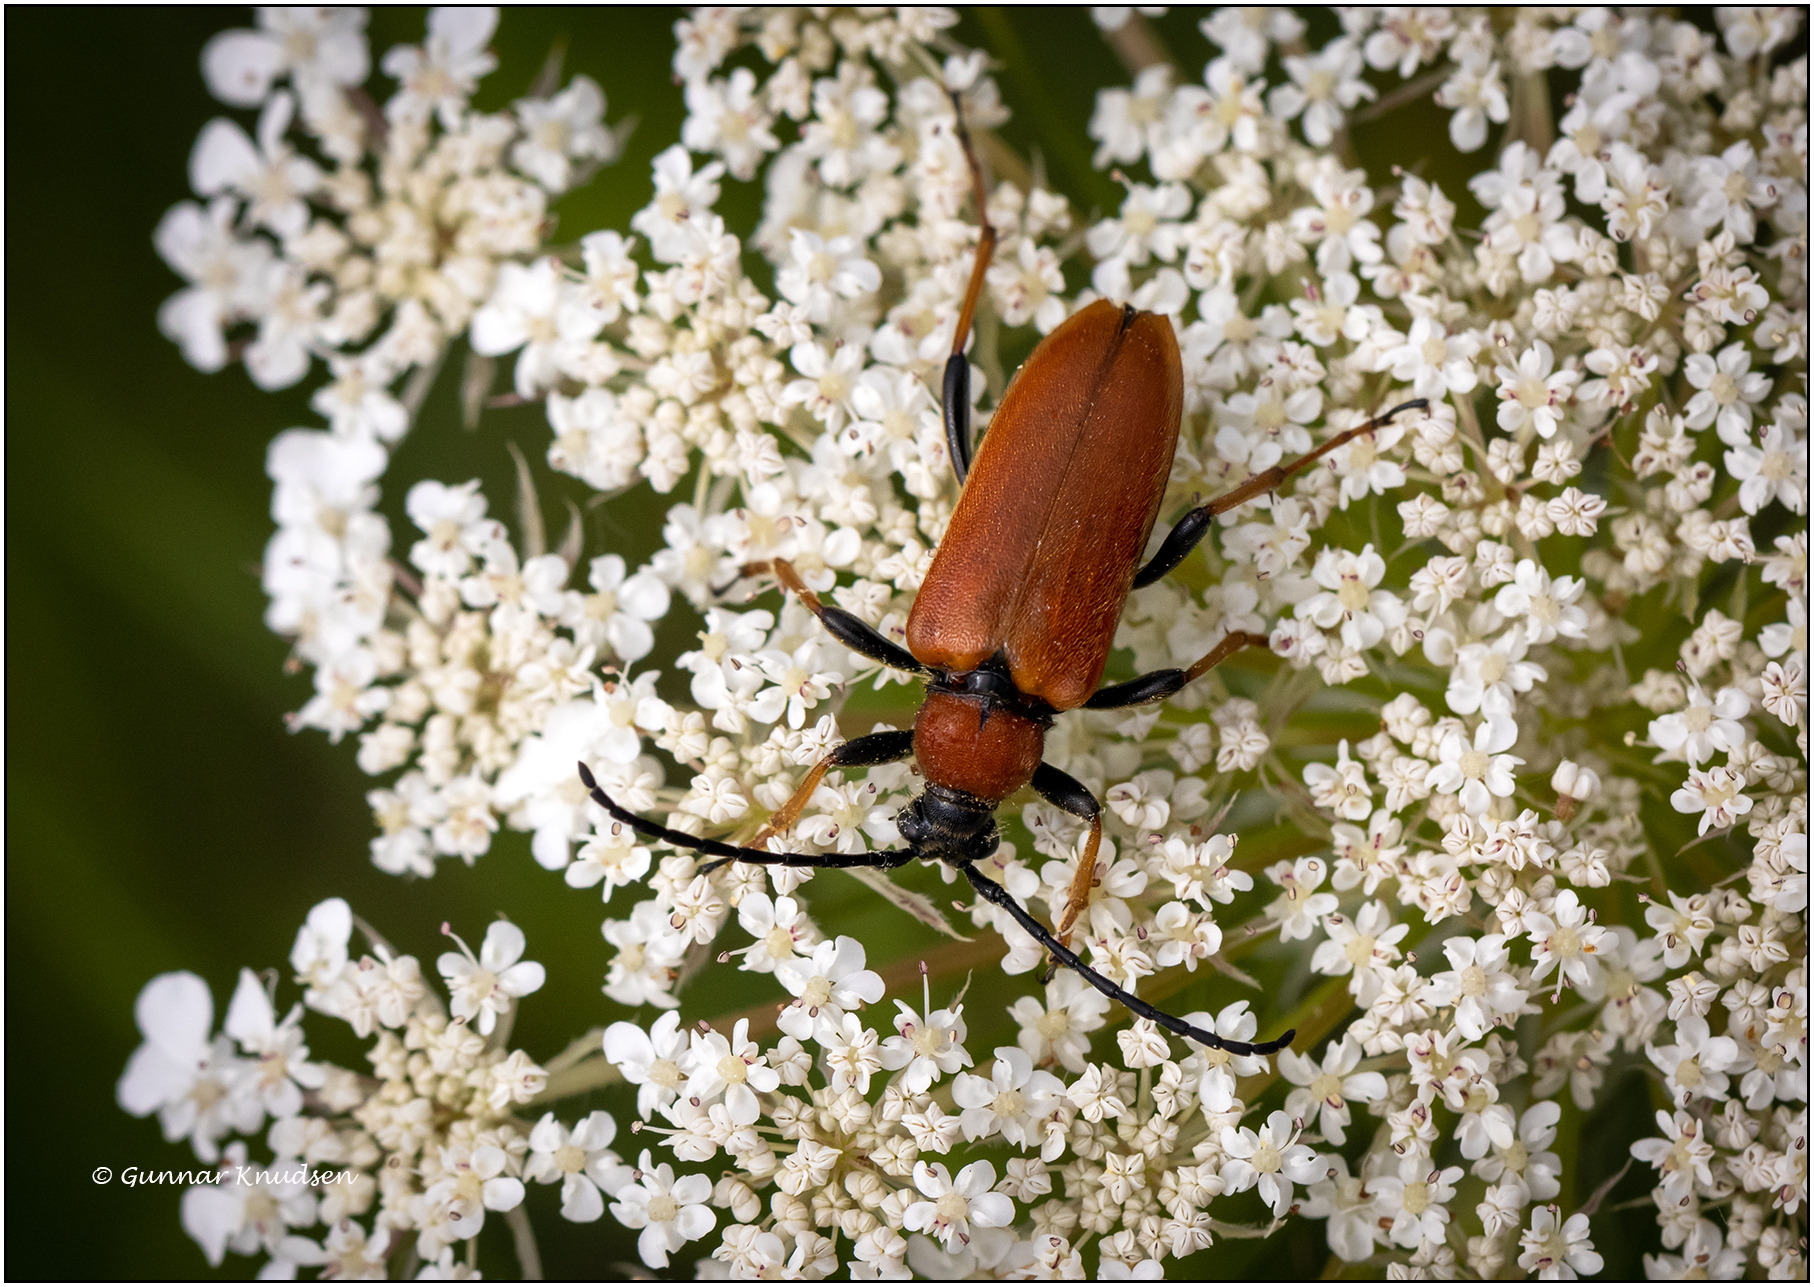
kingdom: Animalia
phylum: Arthropoda
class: Insecta
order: Coleoptera
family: Cerambycidae
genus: Stictoleptura
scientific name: Stictoleptura rubra
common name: Rød blomsterbuk
